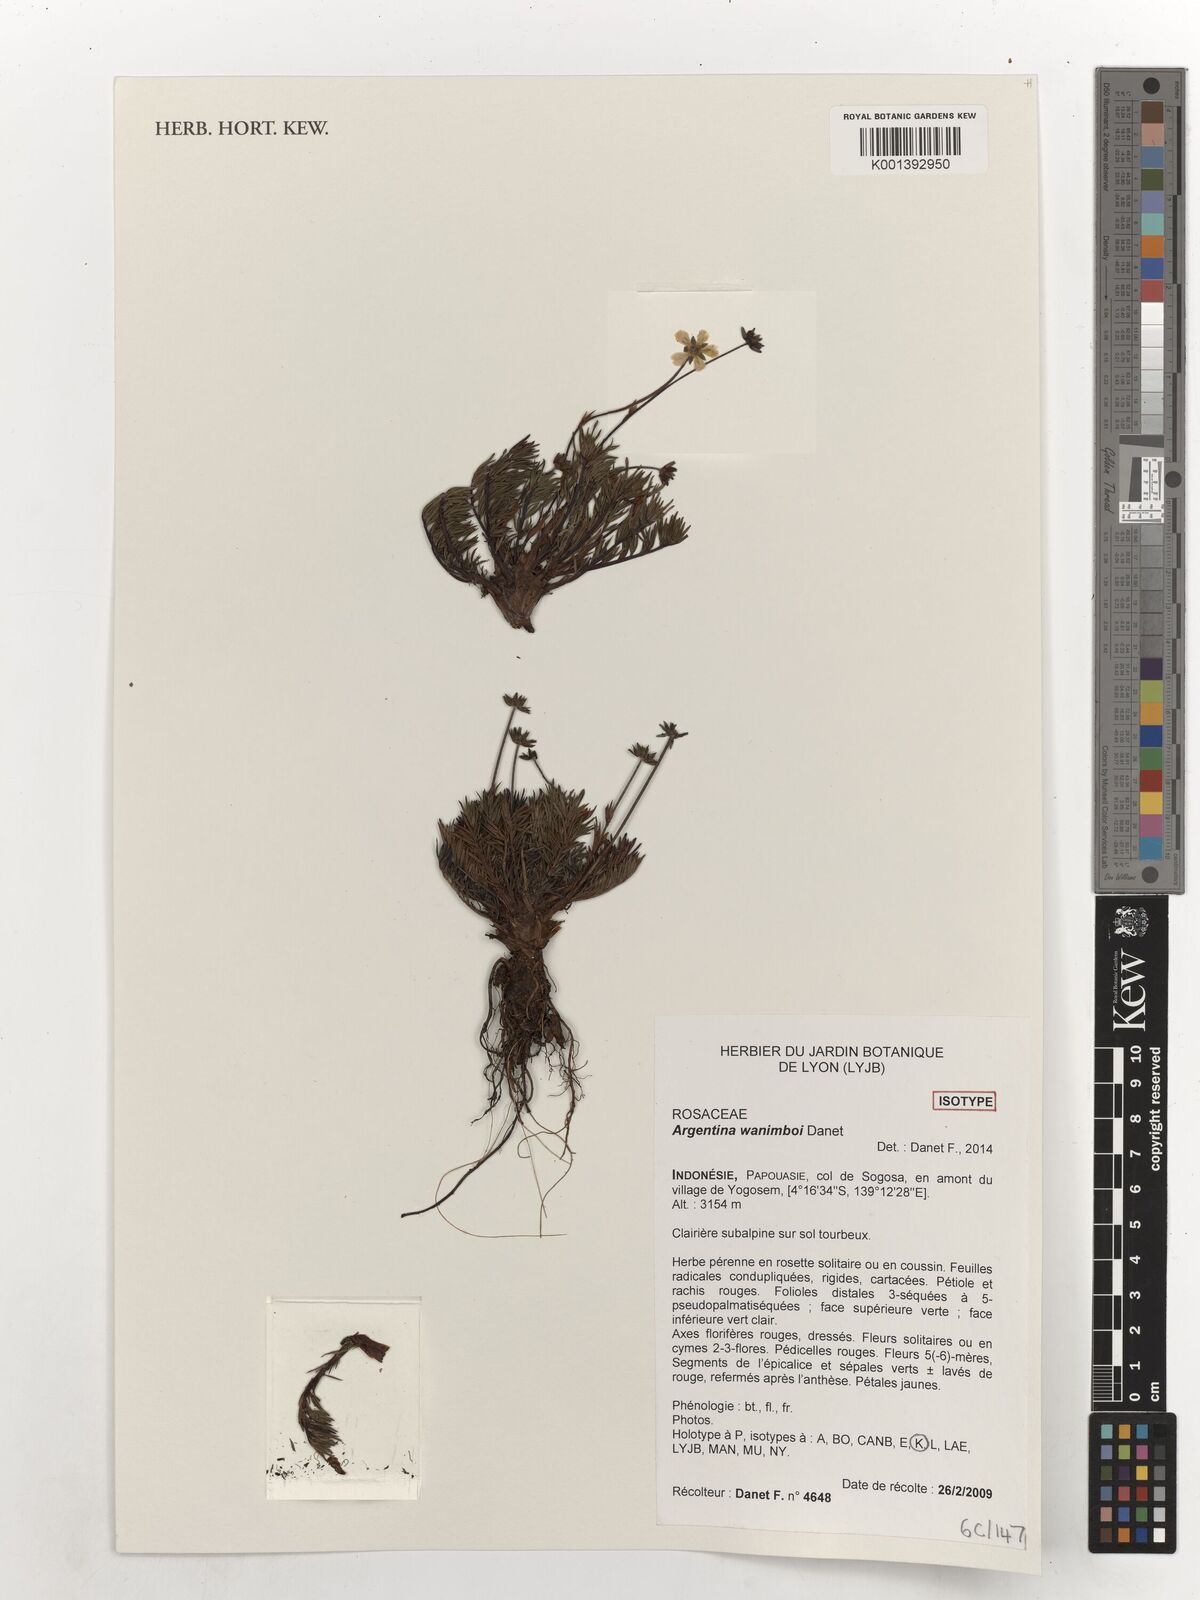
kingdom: Plantae
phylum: Tracheophyta
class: Magnoliopsida
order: Rosales
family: Rosaceae
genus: Argentina
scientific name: Argentina wanimboi
